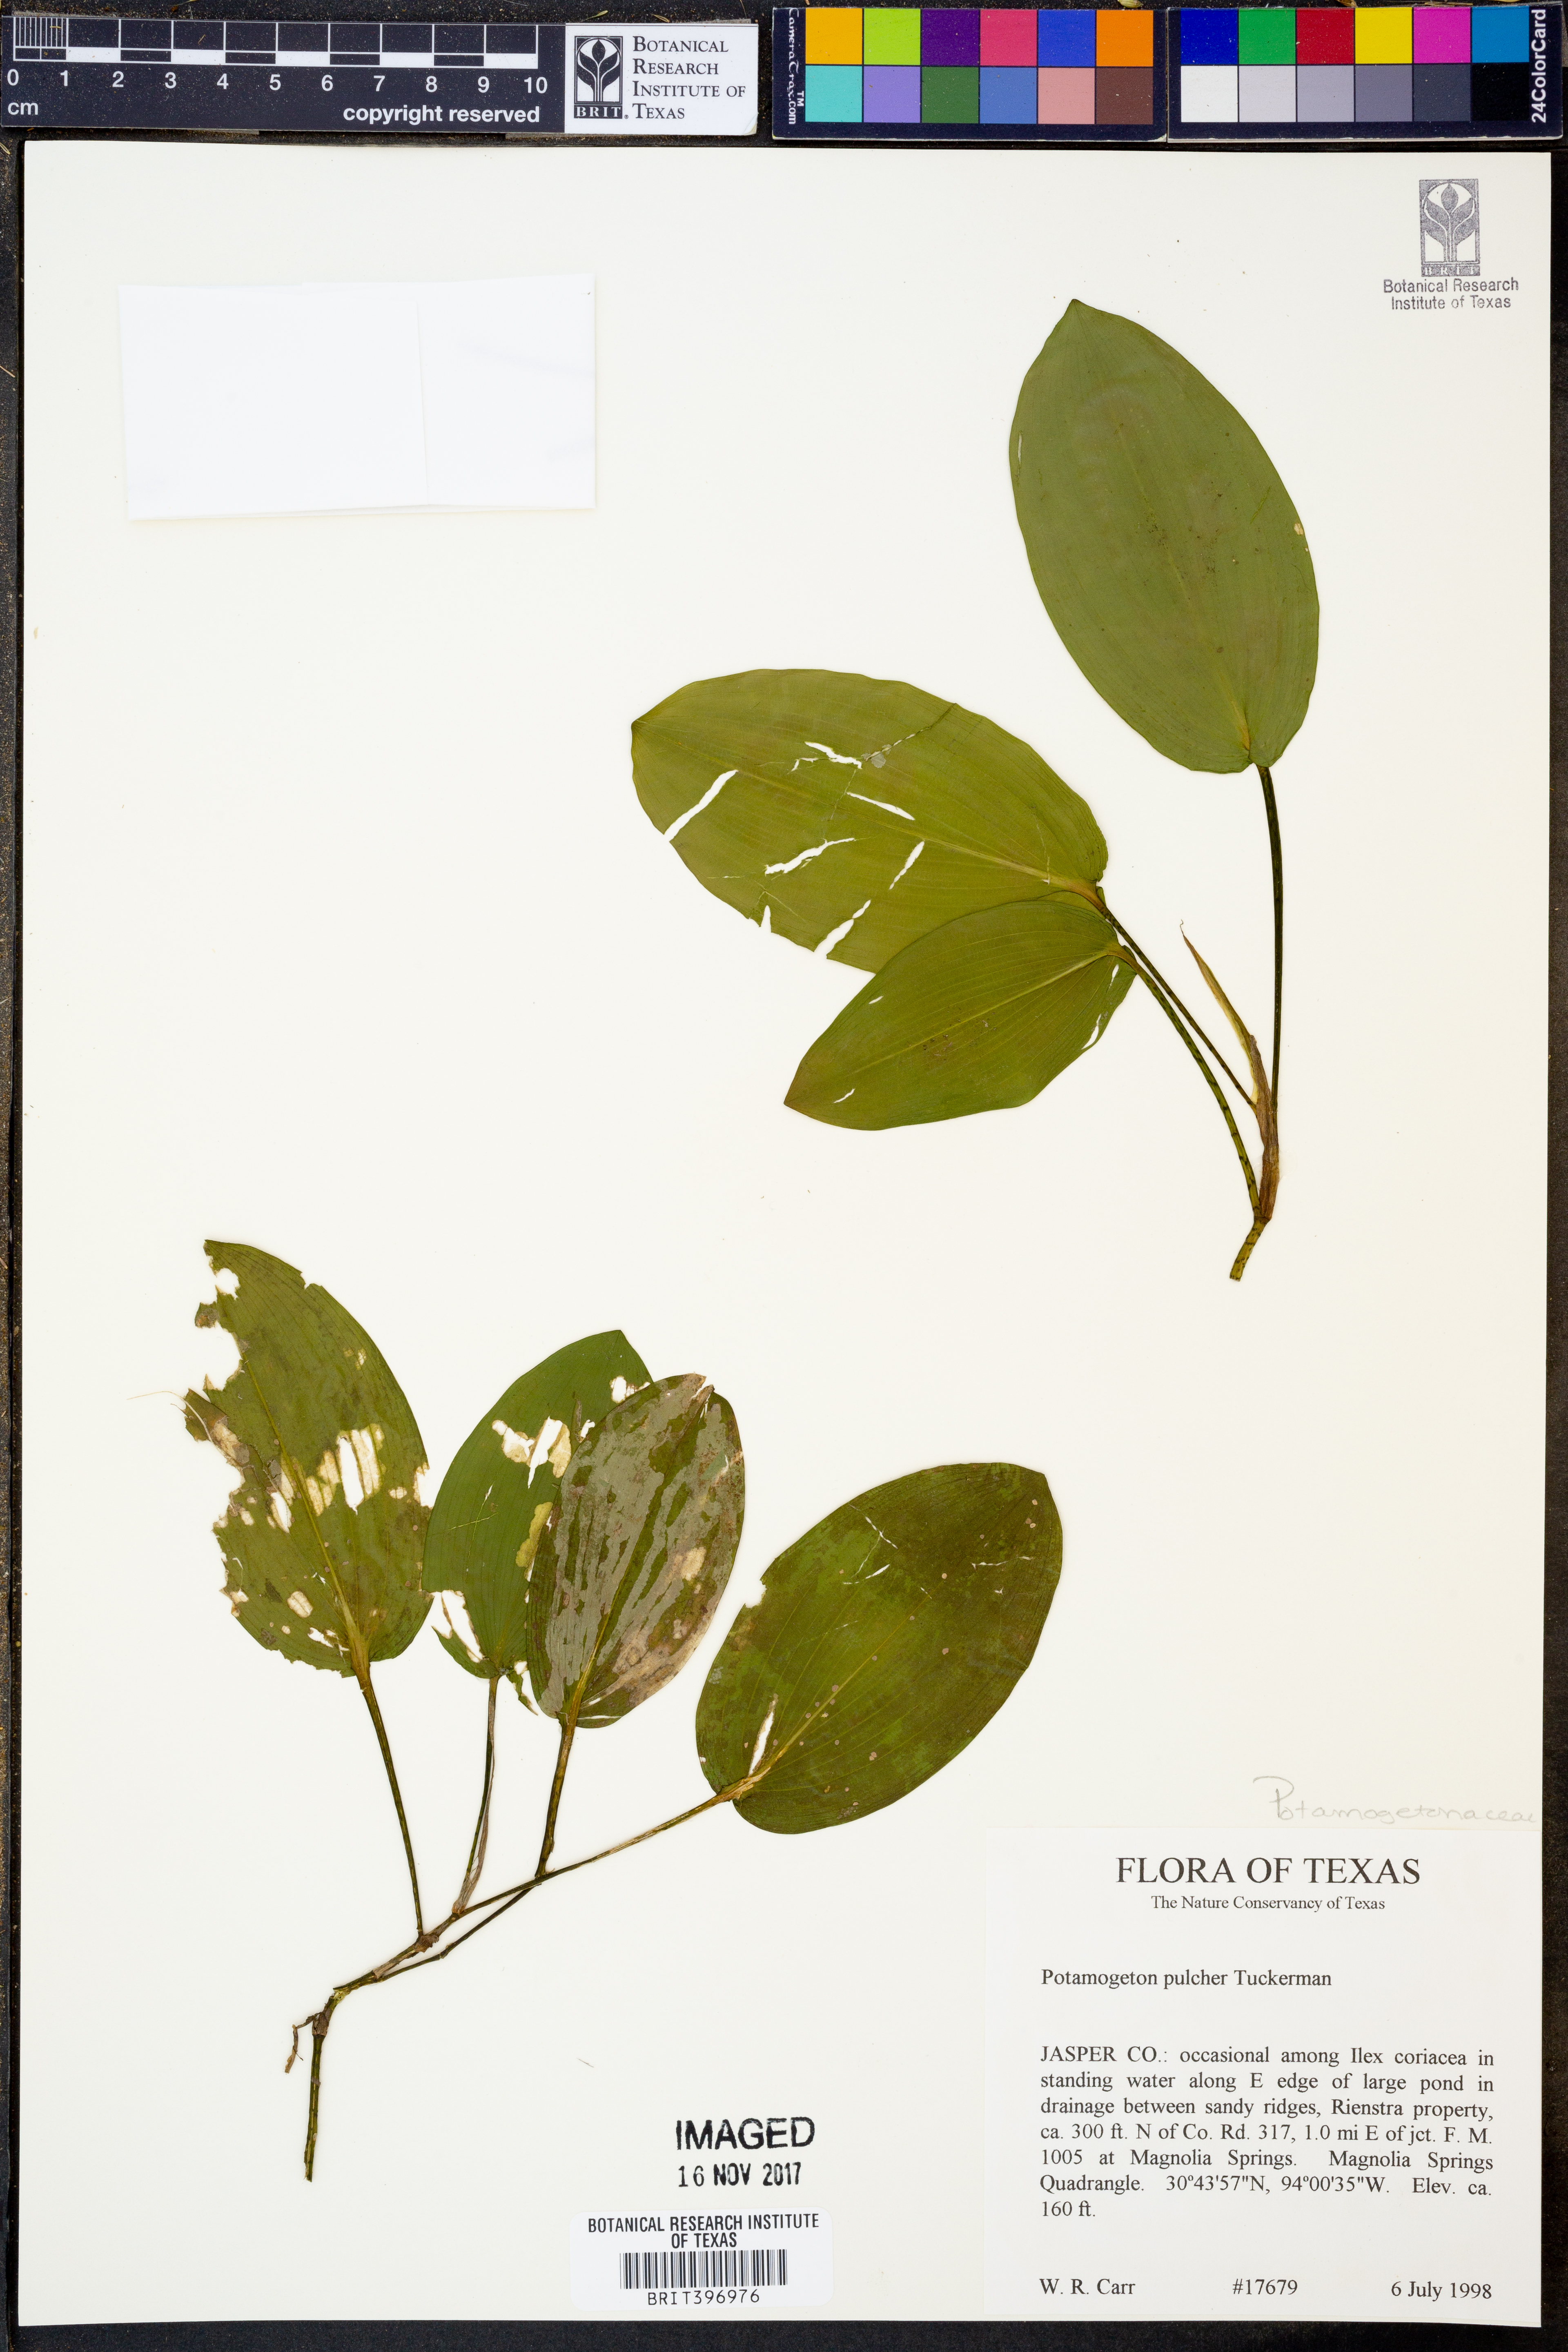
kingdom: Plantae
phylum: Tracheophyta
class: Liliopsida
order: Alismatales
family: Potamogetonaceae
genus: Potamogeton
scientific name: Potamogeton pulcher
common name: Heart-leaved pondweed
